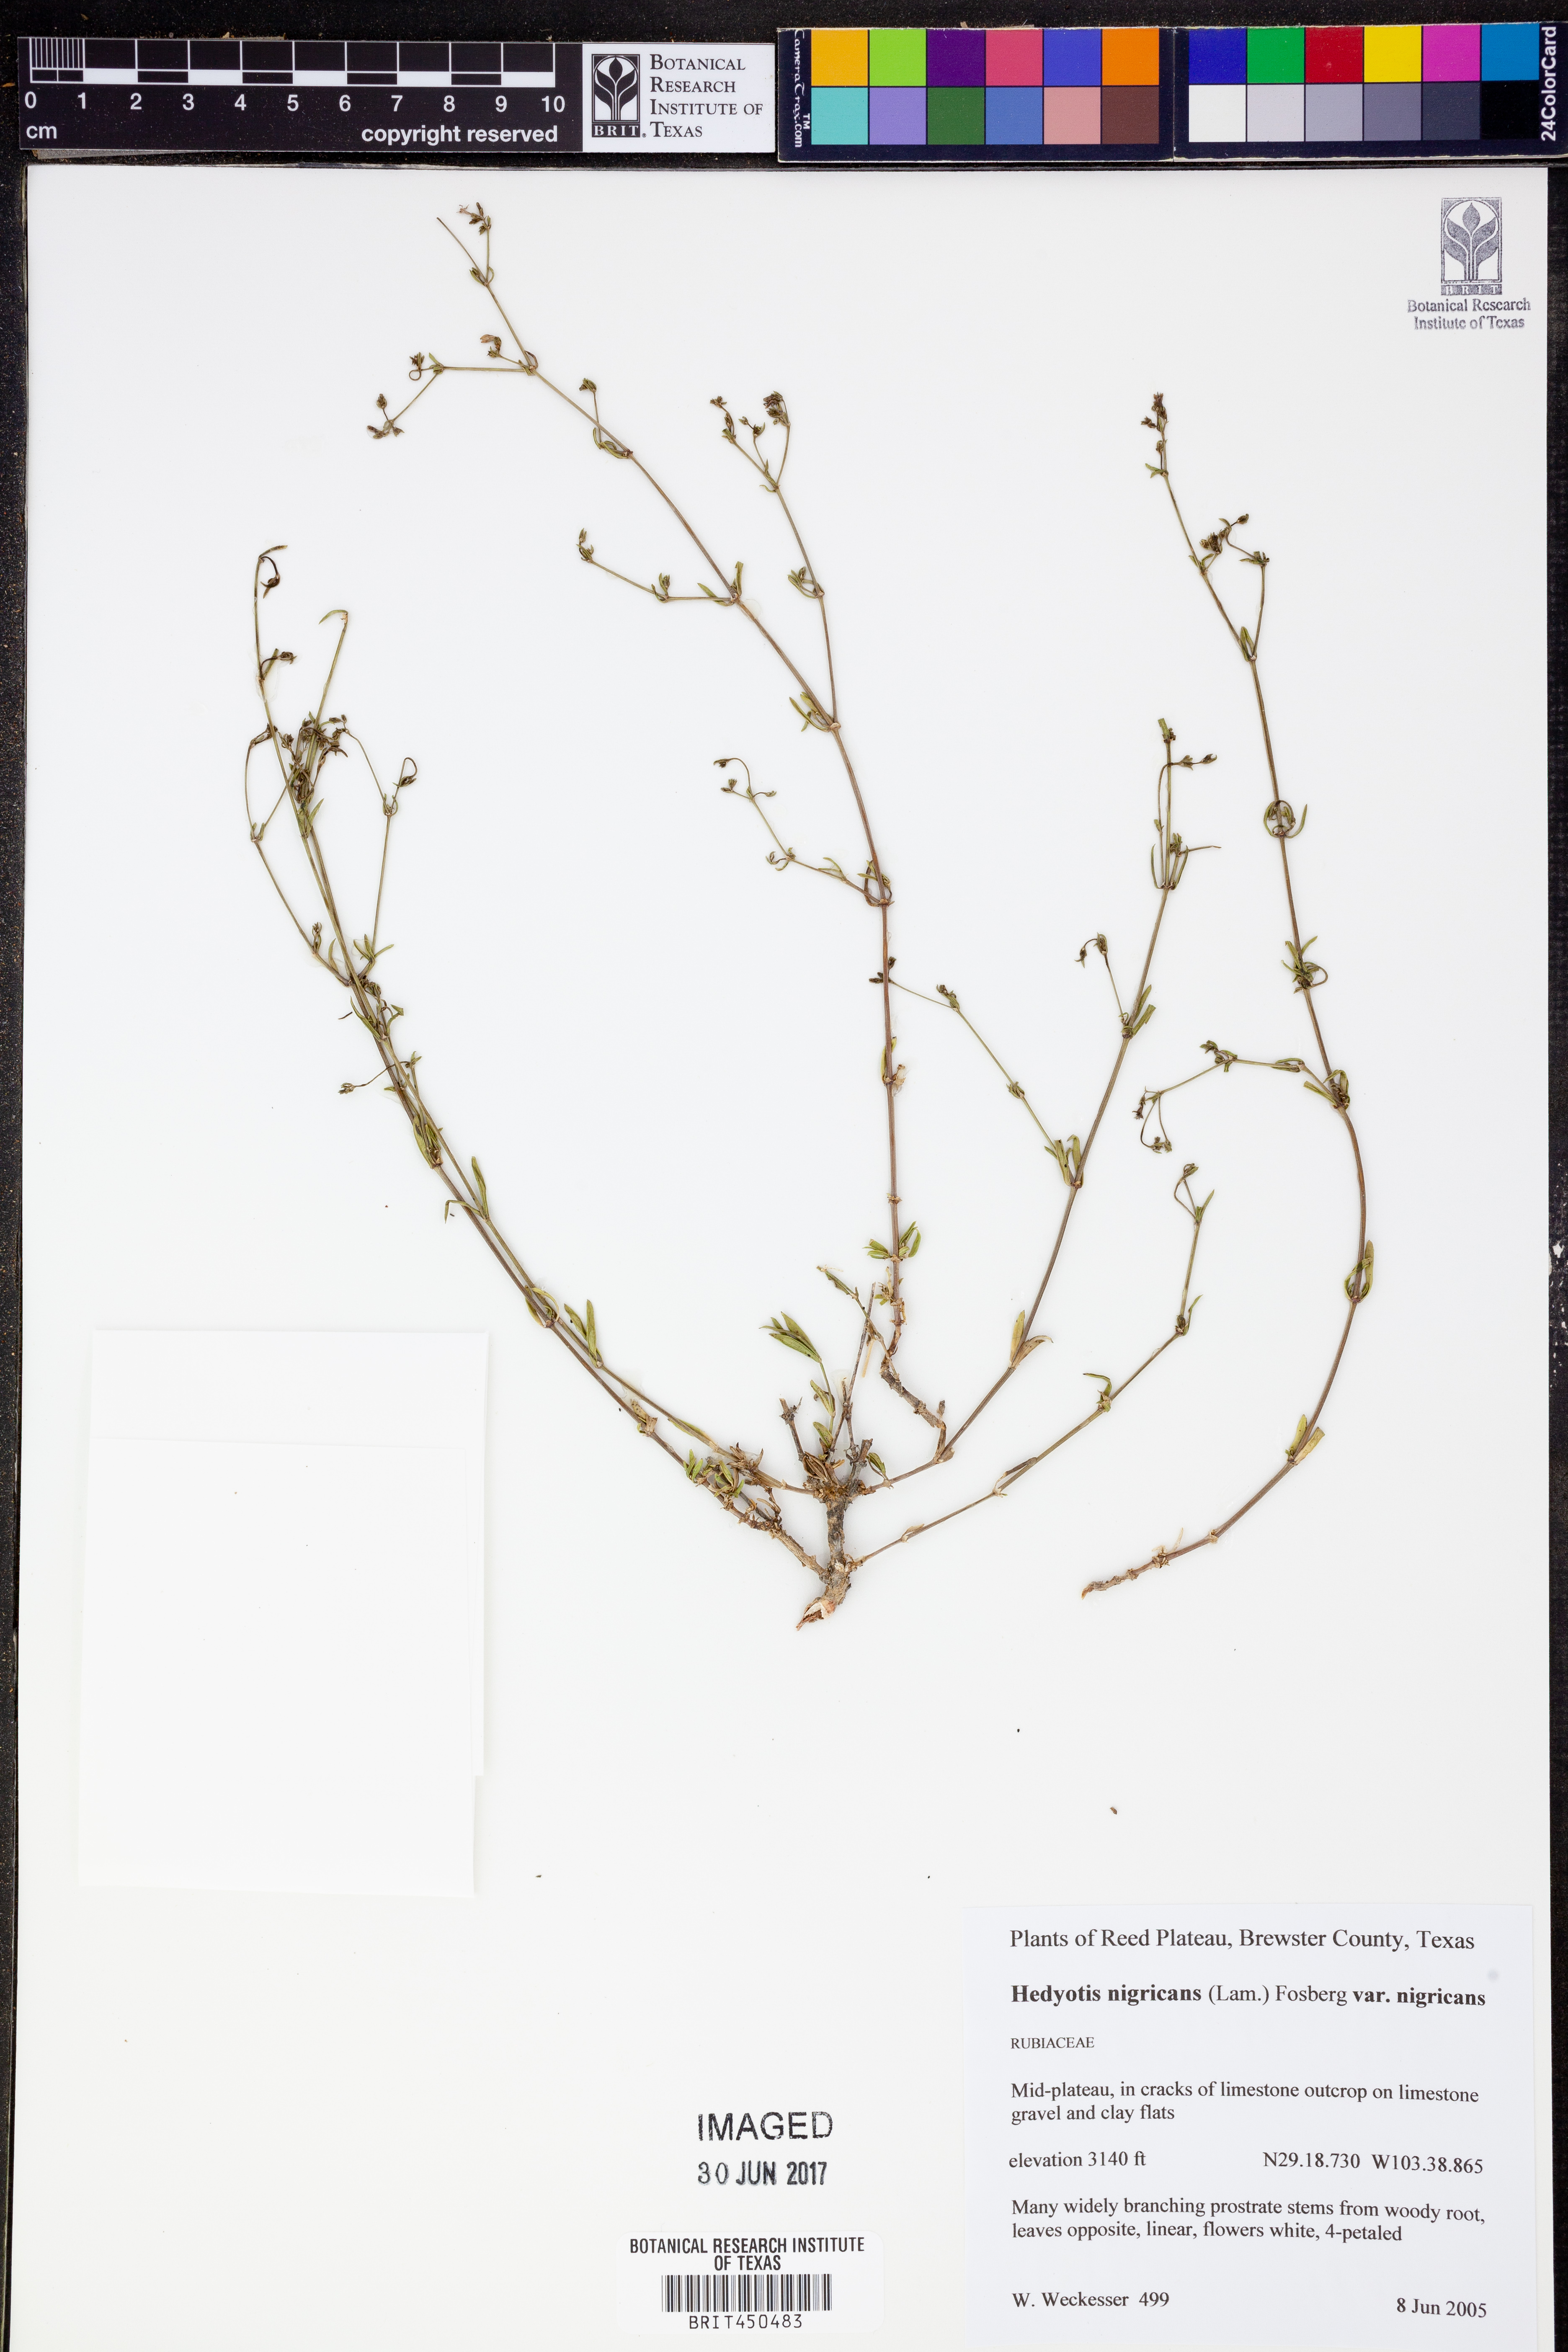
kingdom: Plantae
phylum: Tracheophyta
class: Magnoliopsida
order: Gentianales
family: Rubiaceae
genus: Stenaria
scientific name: Stenaria nigricans
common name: Diamondflowers
